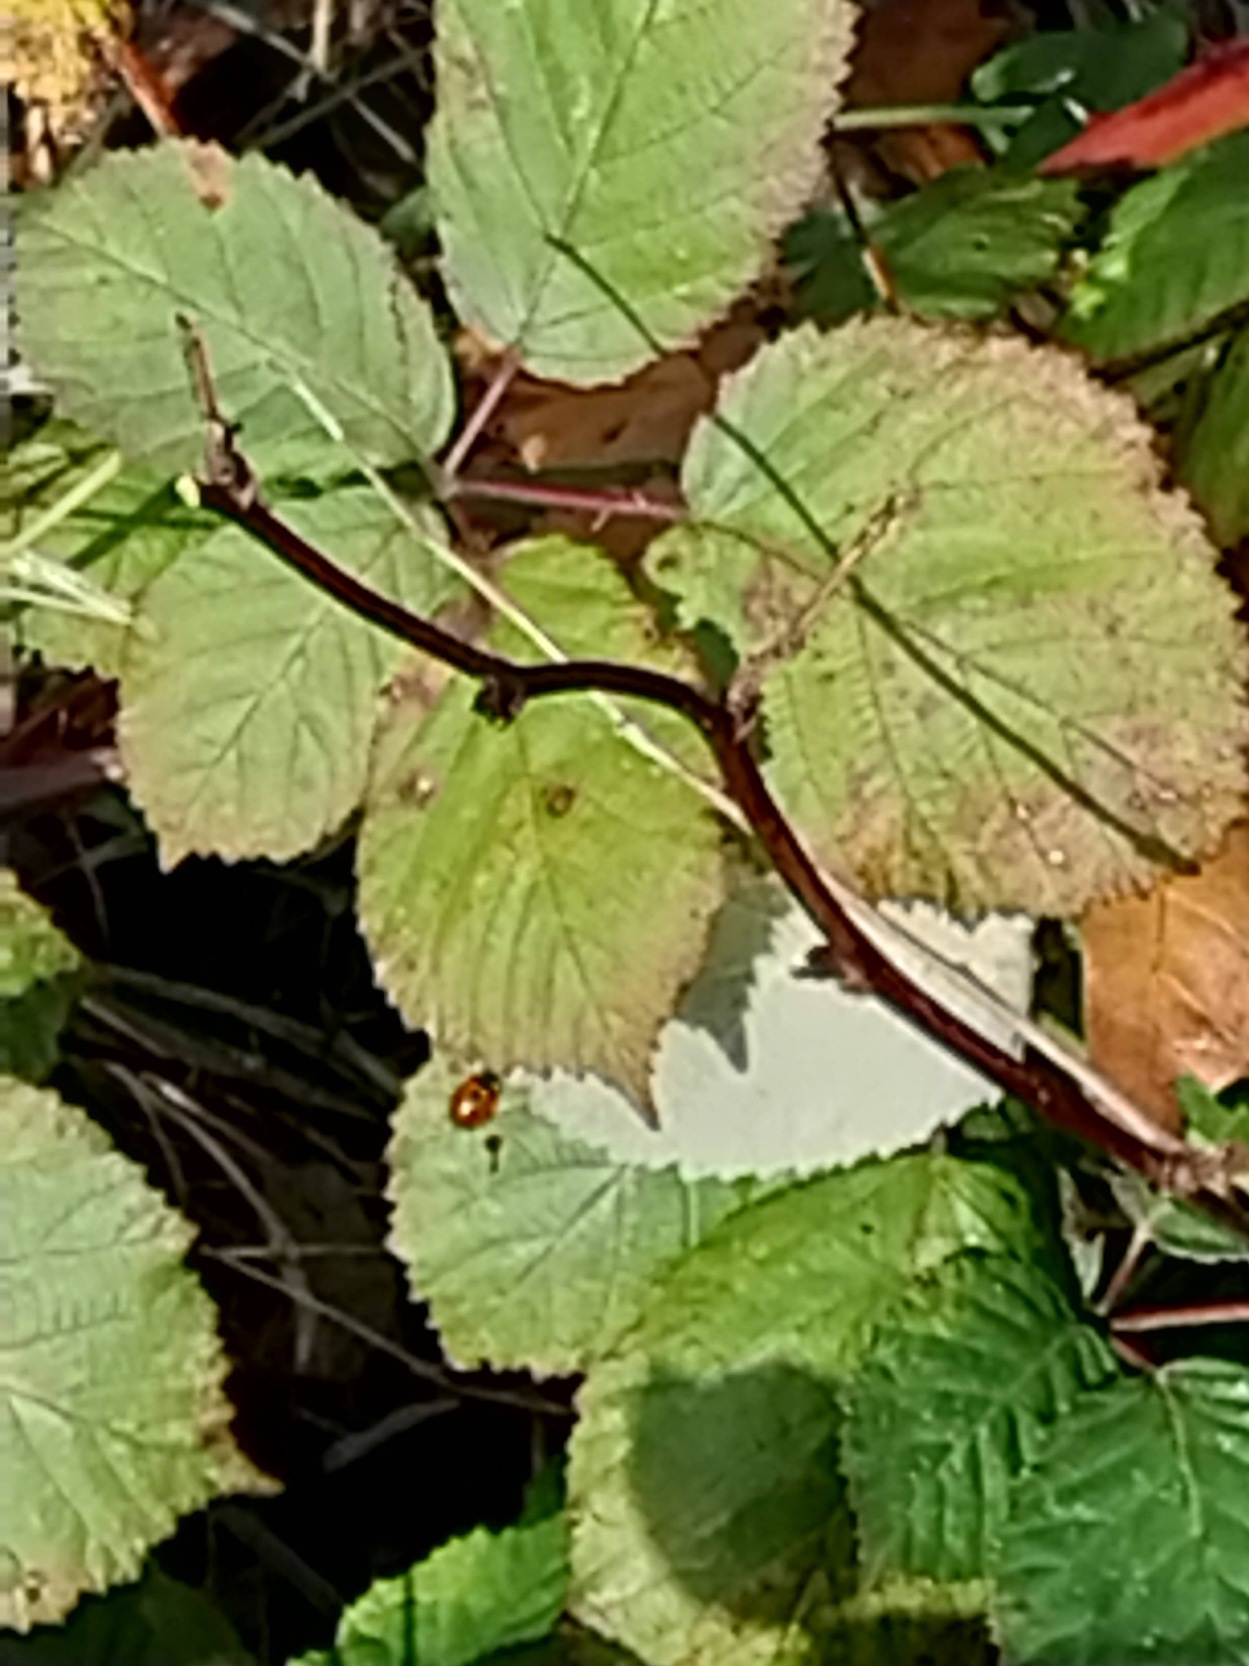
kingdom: Plantae
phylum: Tracheophyta
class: Magnoliopsida
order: Rosales
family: Rosaceae
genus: Rubus
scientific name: Rubus armeniacus
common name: Armensk brombær
